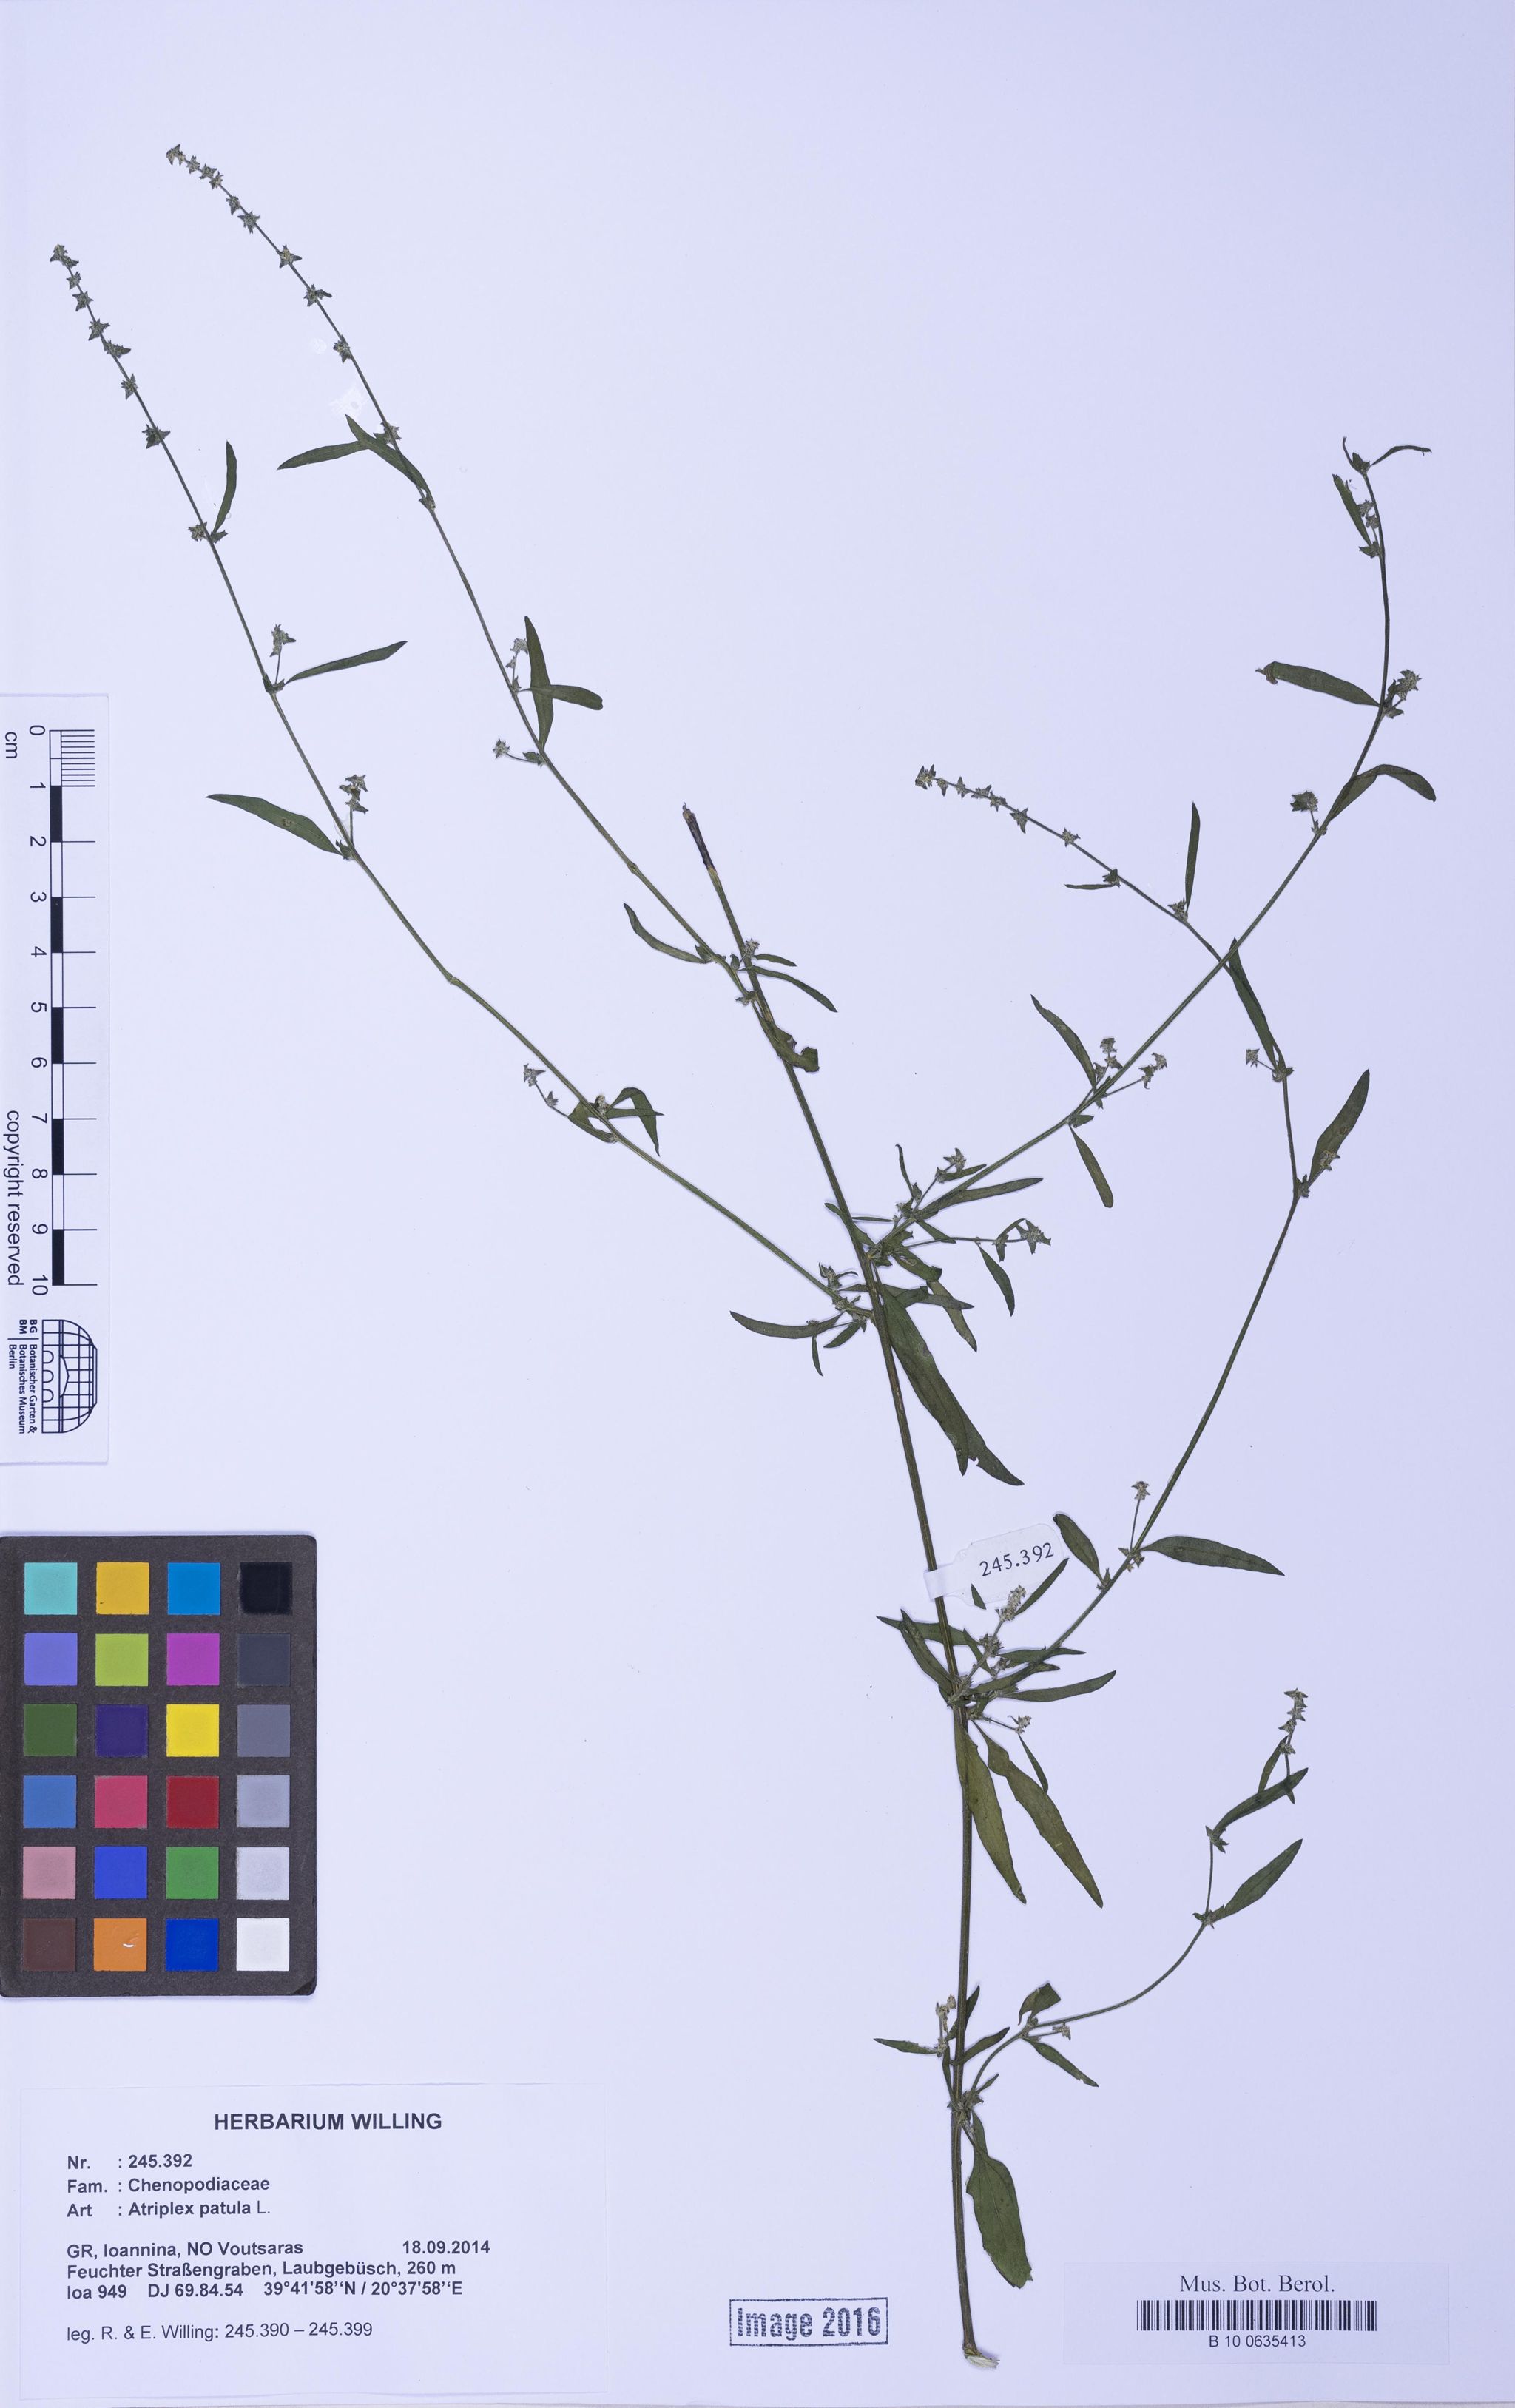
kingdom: Plantae
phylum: Tracheophyta
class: Magnoliopsida
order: Caryophyllales
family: Amaranthaceae
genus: Atriplex
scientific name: Atriplex patula
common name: Common orache
